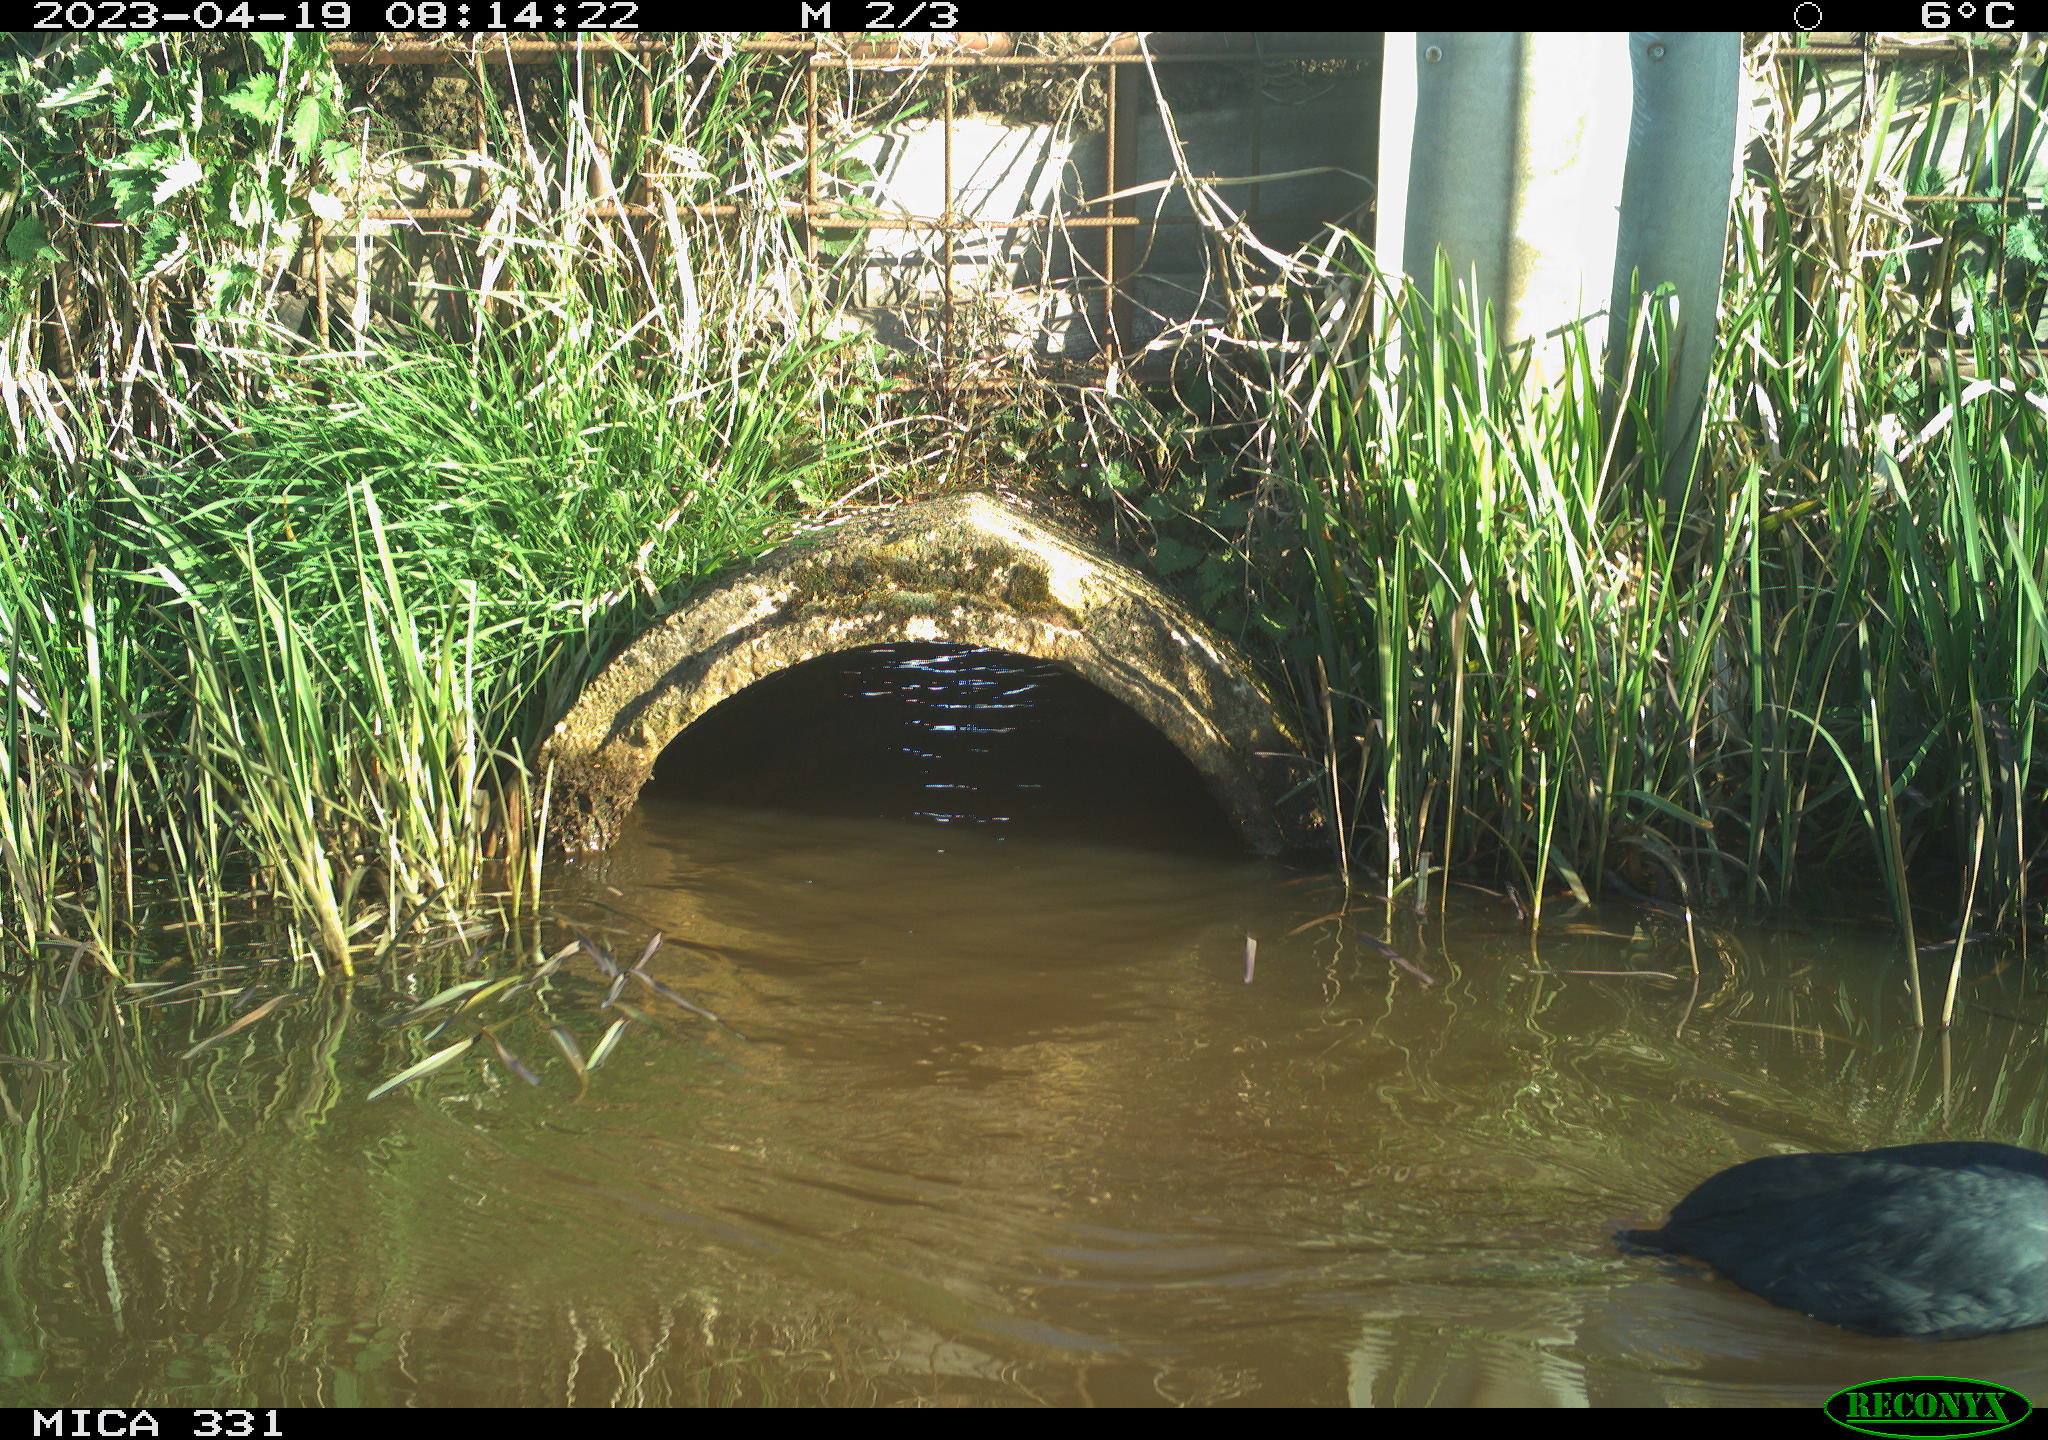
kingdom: Animalia
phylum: Chordata
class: Aves
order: Gruiformes
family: Rallidae
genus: Fulica
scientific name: Fulica atra
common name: Eurasian coot
